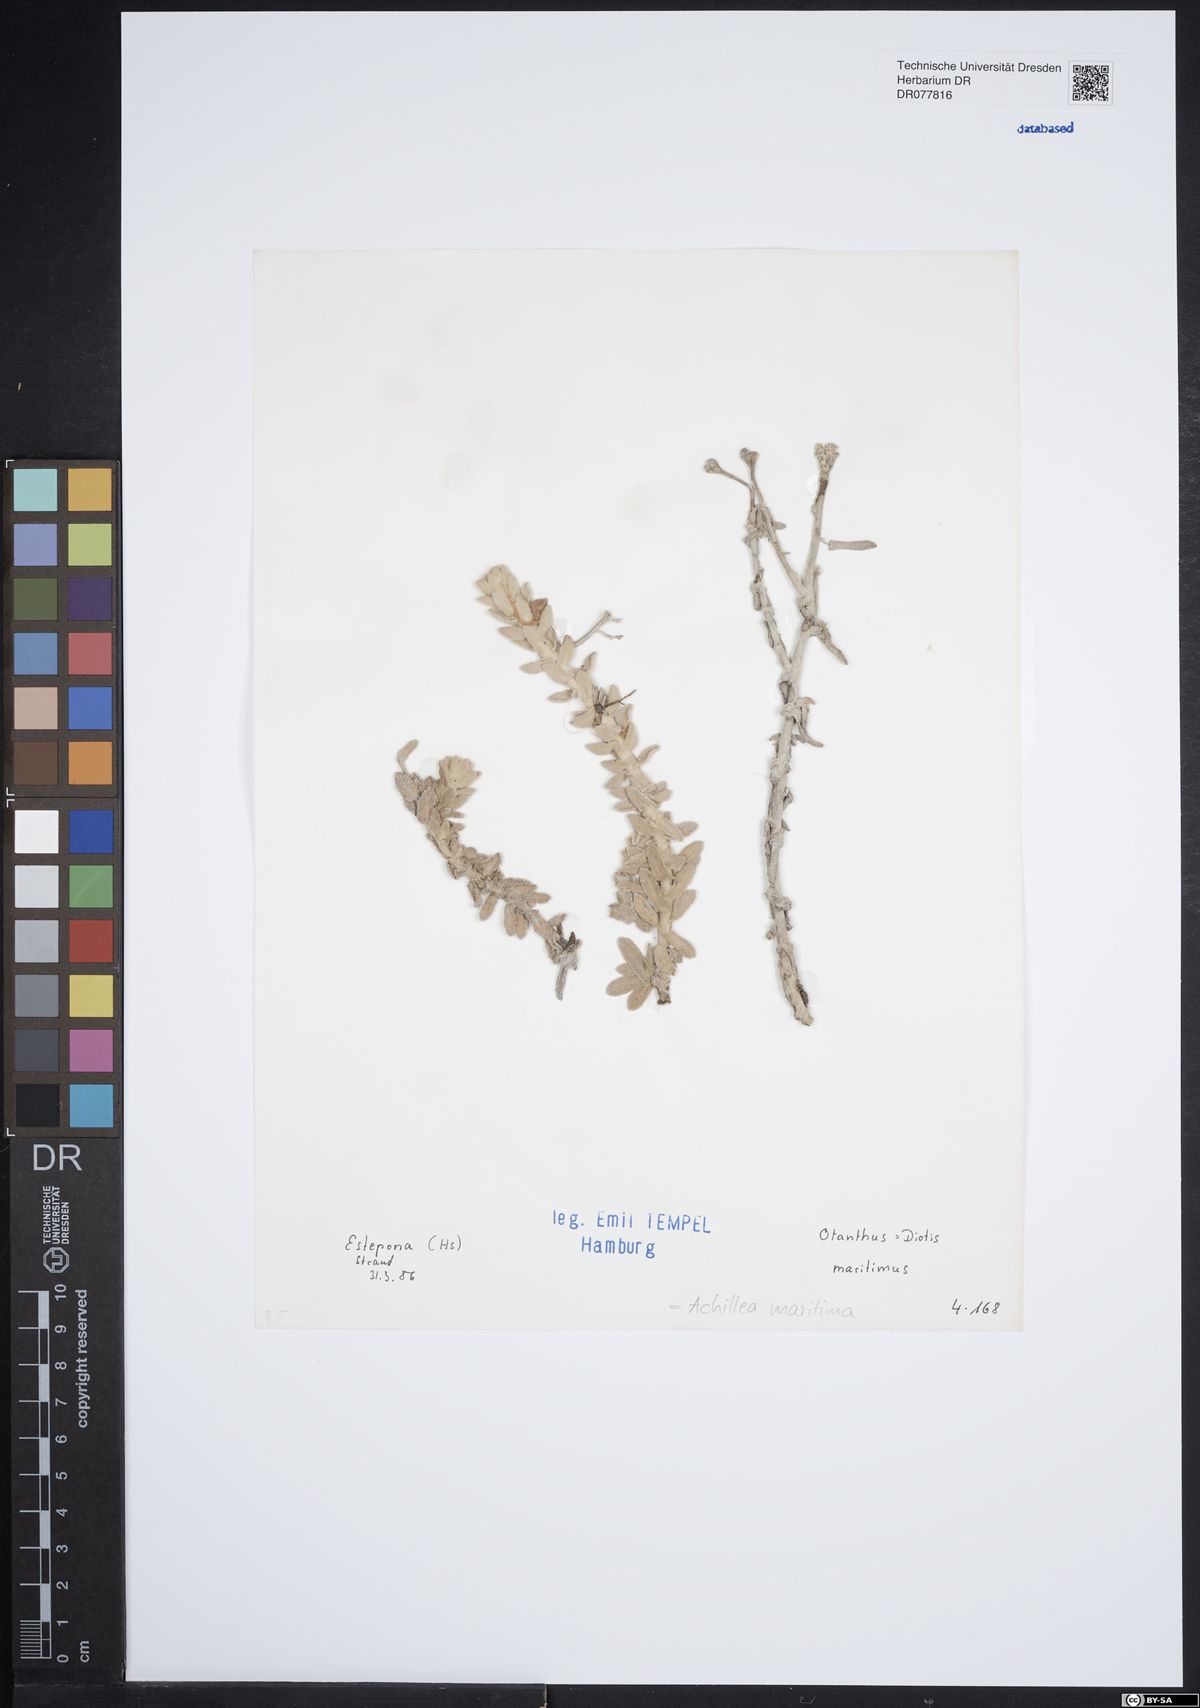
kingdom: Plantae
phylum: Tracheophyta
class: Magnoliopsida
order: Asterales
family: Asteraceae
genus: Achillea
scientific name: Achillea maritima
